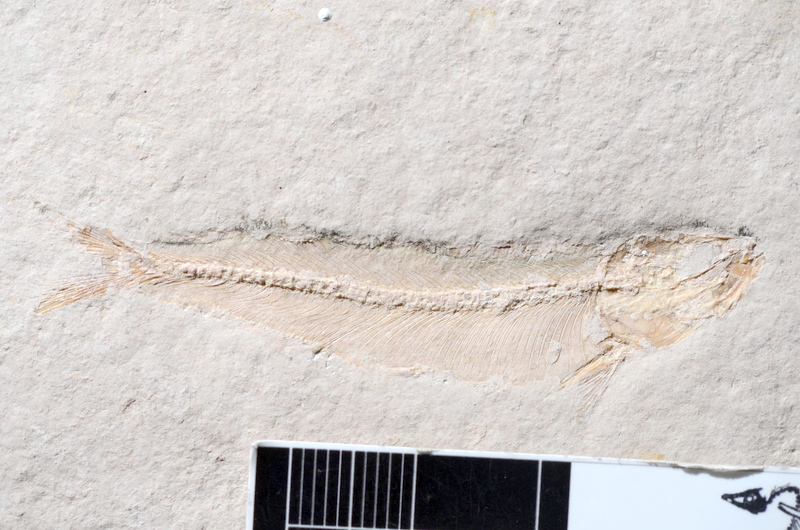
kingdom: Animalia
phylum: Chordata
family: Allothrissopidae
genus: Allothrissops
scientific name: Allothrissops mesogaster
